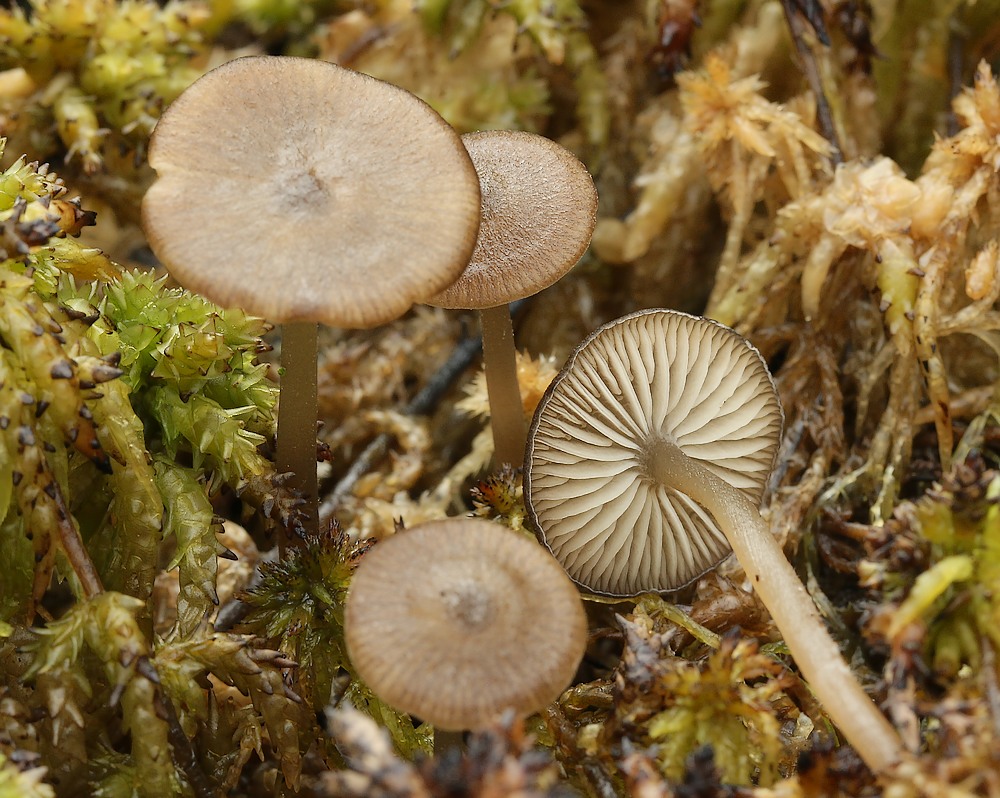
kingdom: Fungi
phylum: Basidiomycota
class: Agaricomycetes
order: Agaricales
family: Lyophyllaceae
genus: Sphagnurus
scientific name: Sphagnurus paluster
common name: tørvemos-gråblad
